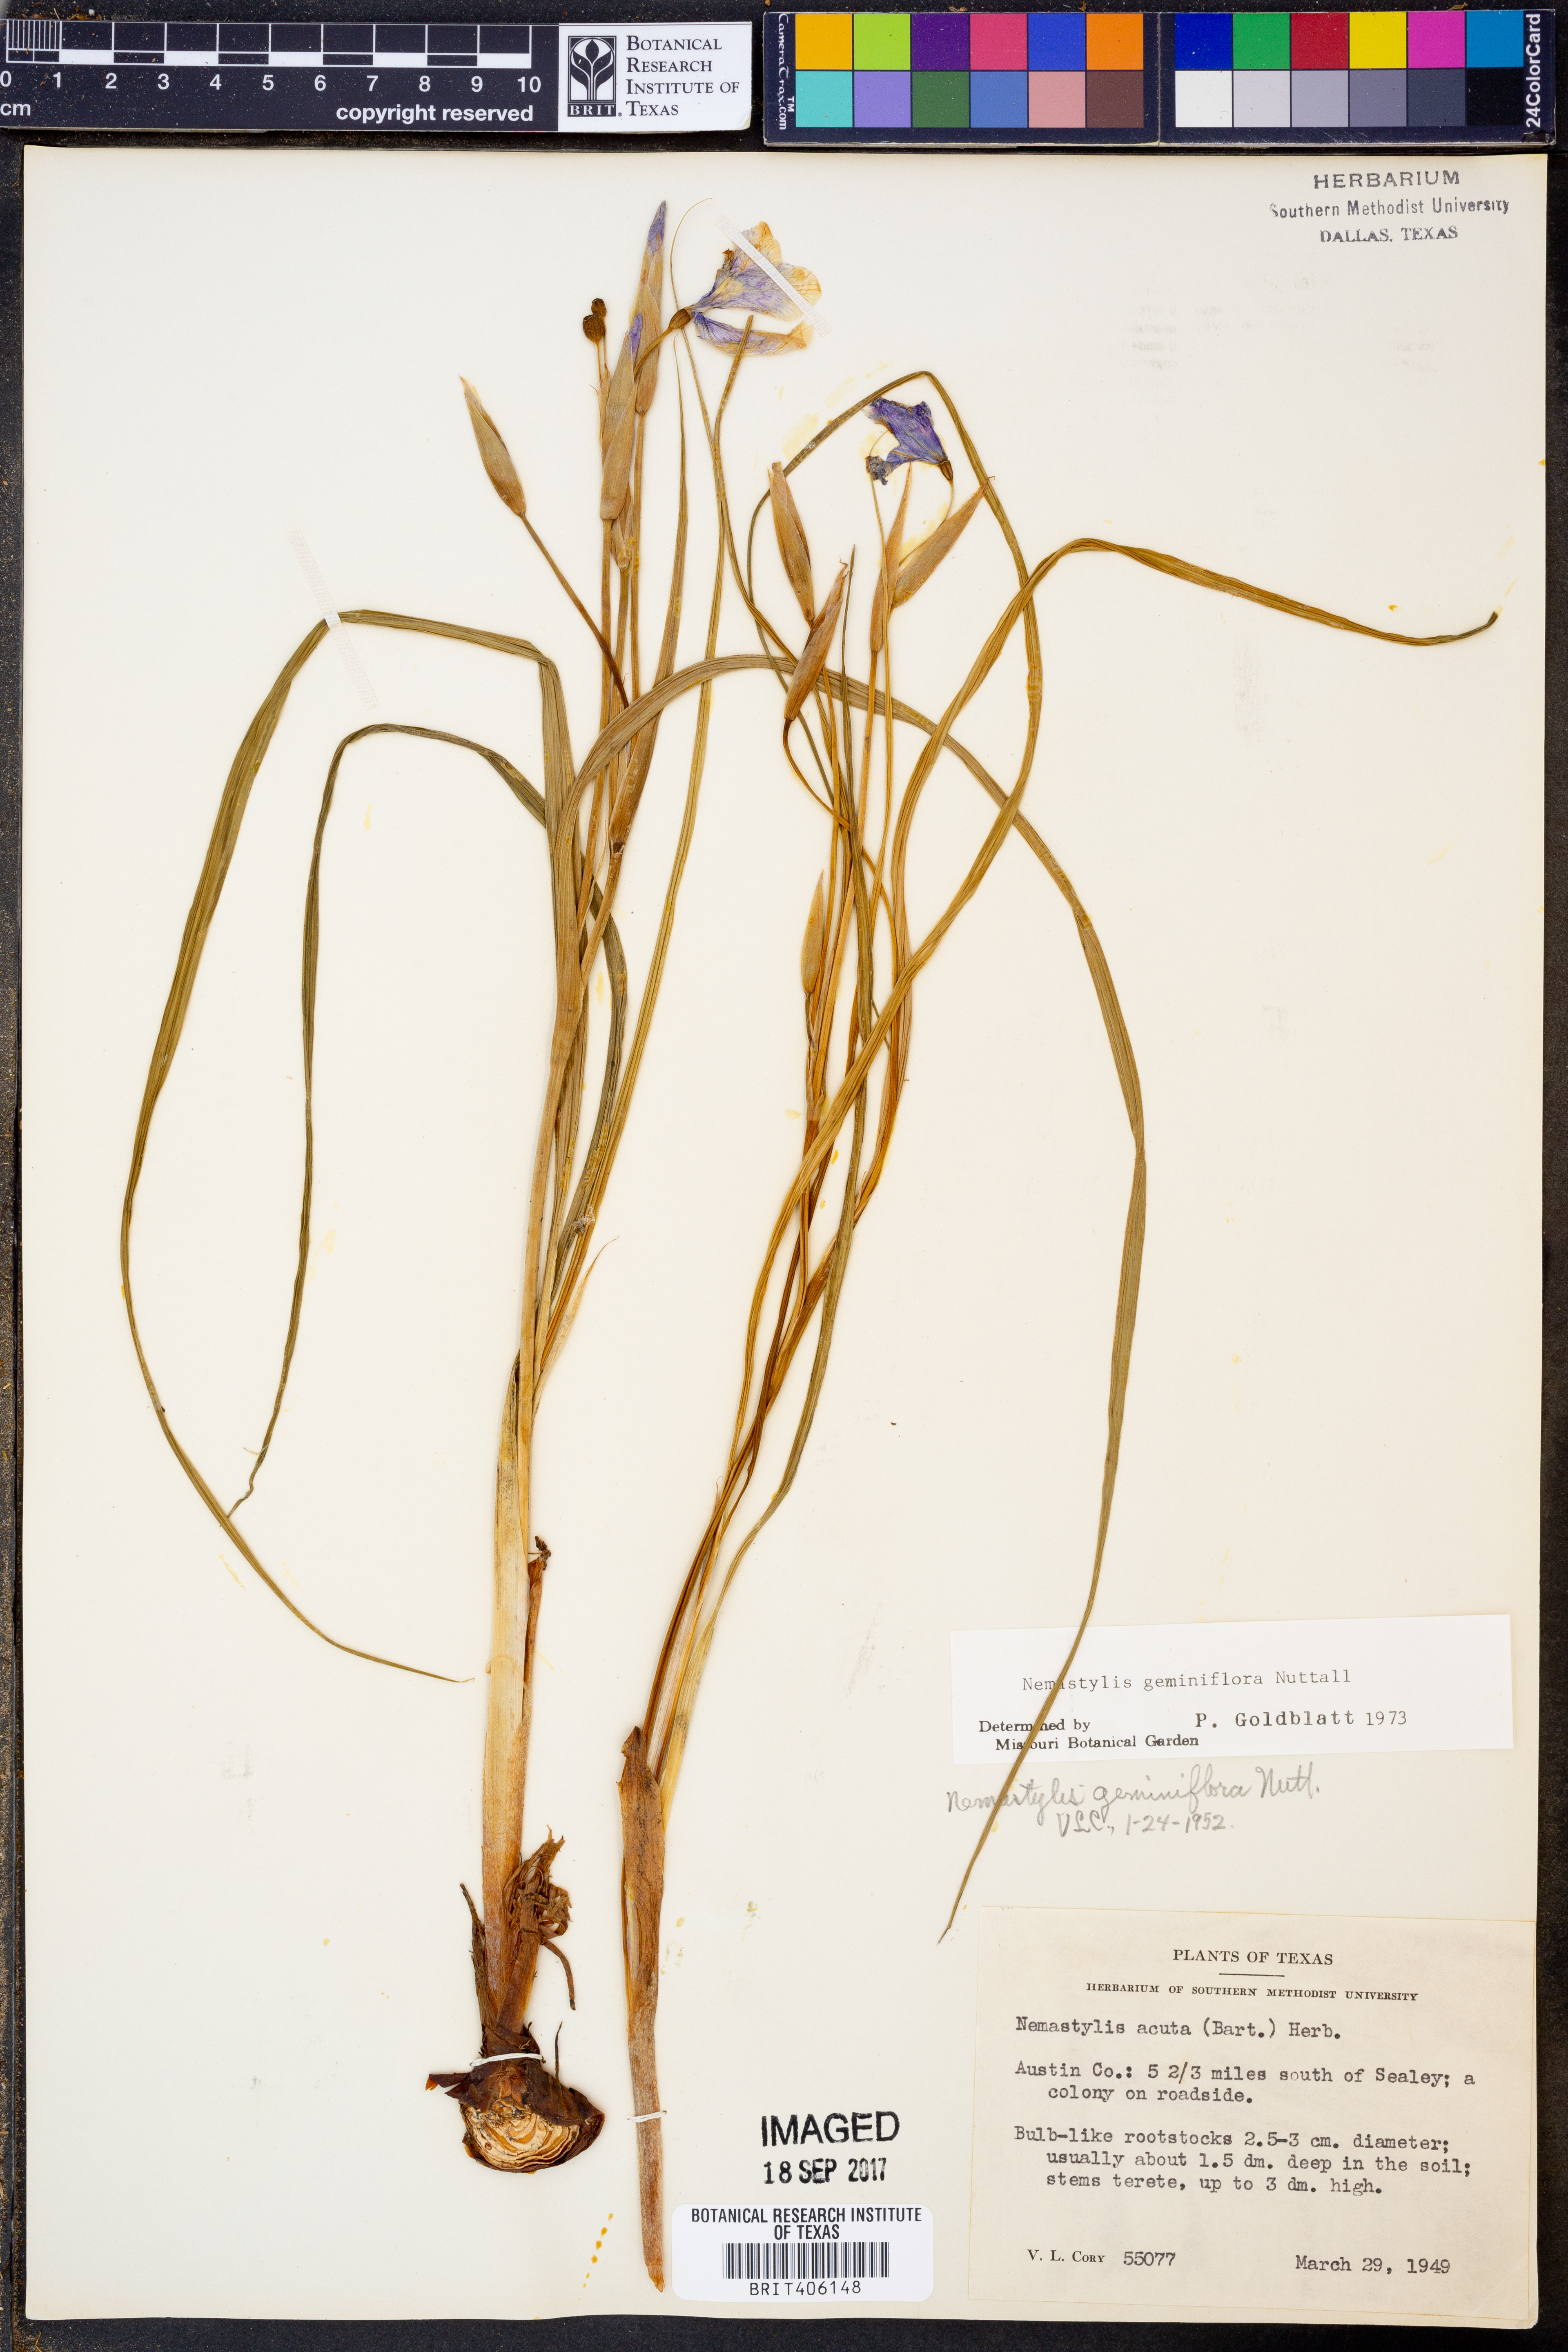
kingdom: Plantae
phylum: Tracheophyta
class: Liliopsida
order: Asparagales
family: Iridaceae
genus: Nemastylis
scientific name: Nemastylis geminiflora
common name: Prairie celestial
